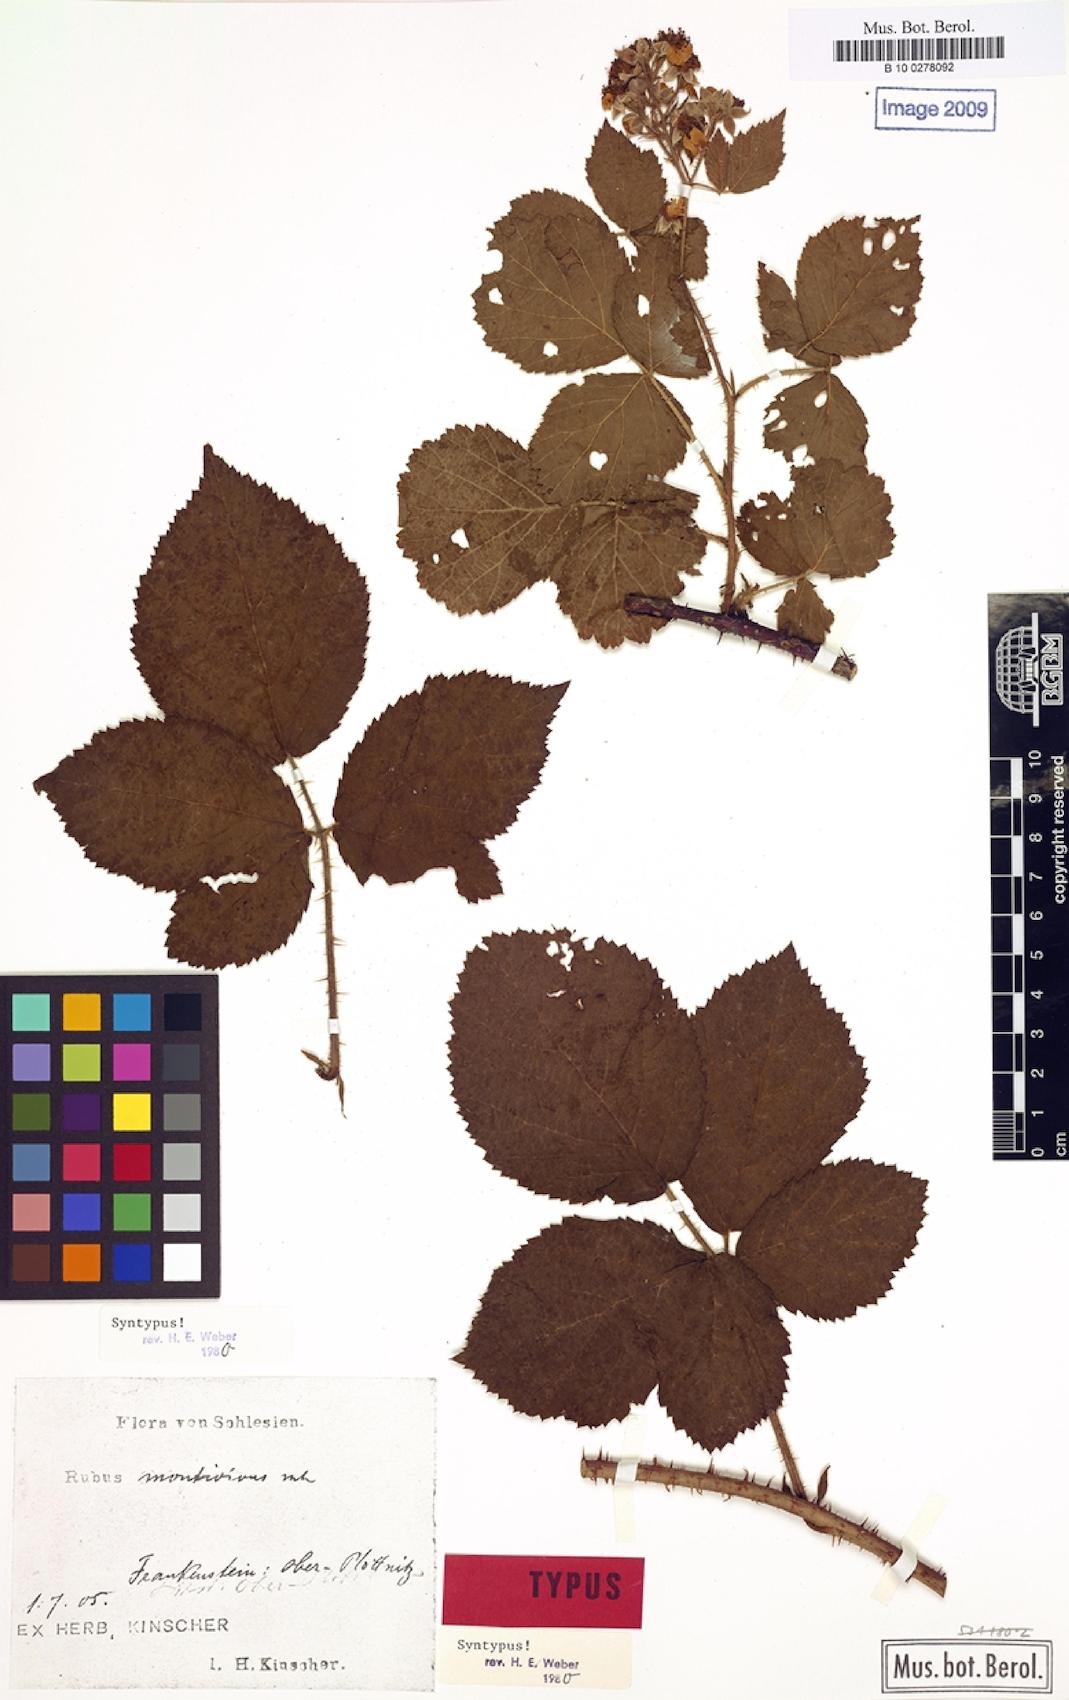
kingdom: Plantae
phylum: Tracheophyta
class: Magnoliopsida
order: Rosales
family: Rosaceae
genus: Rubus
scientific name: Rubus dollnensis
